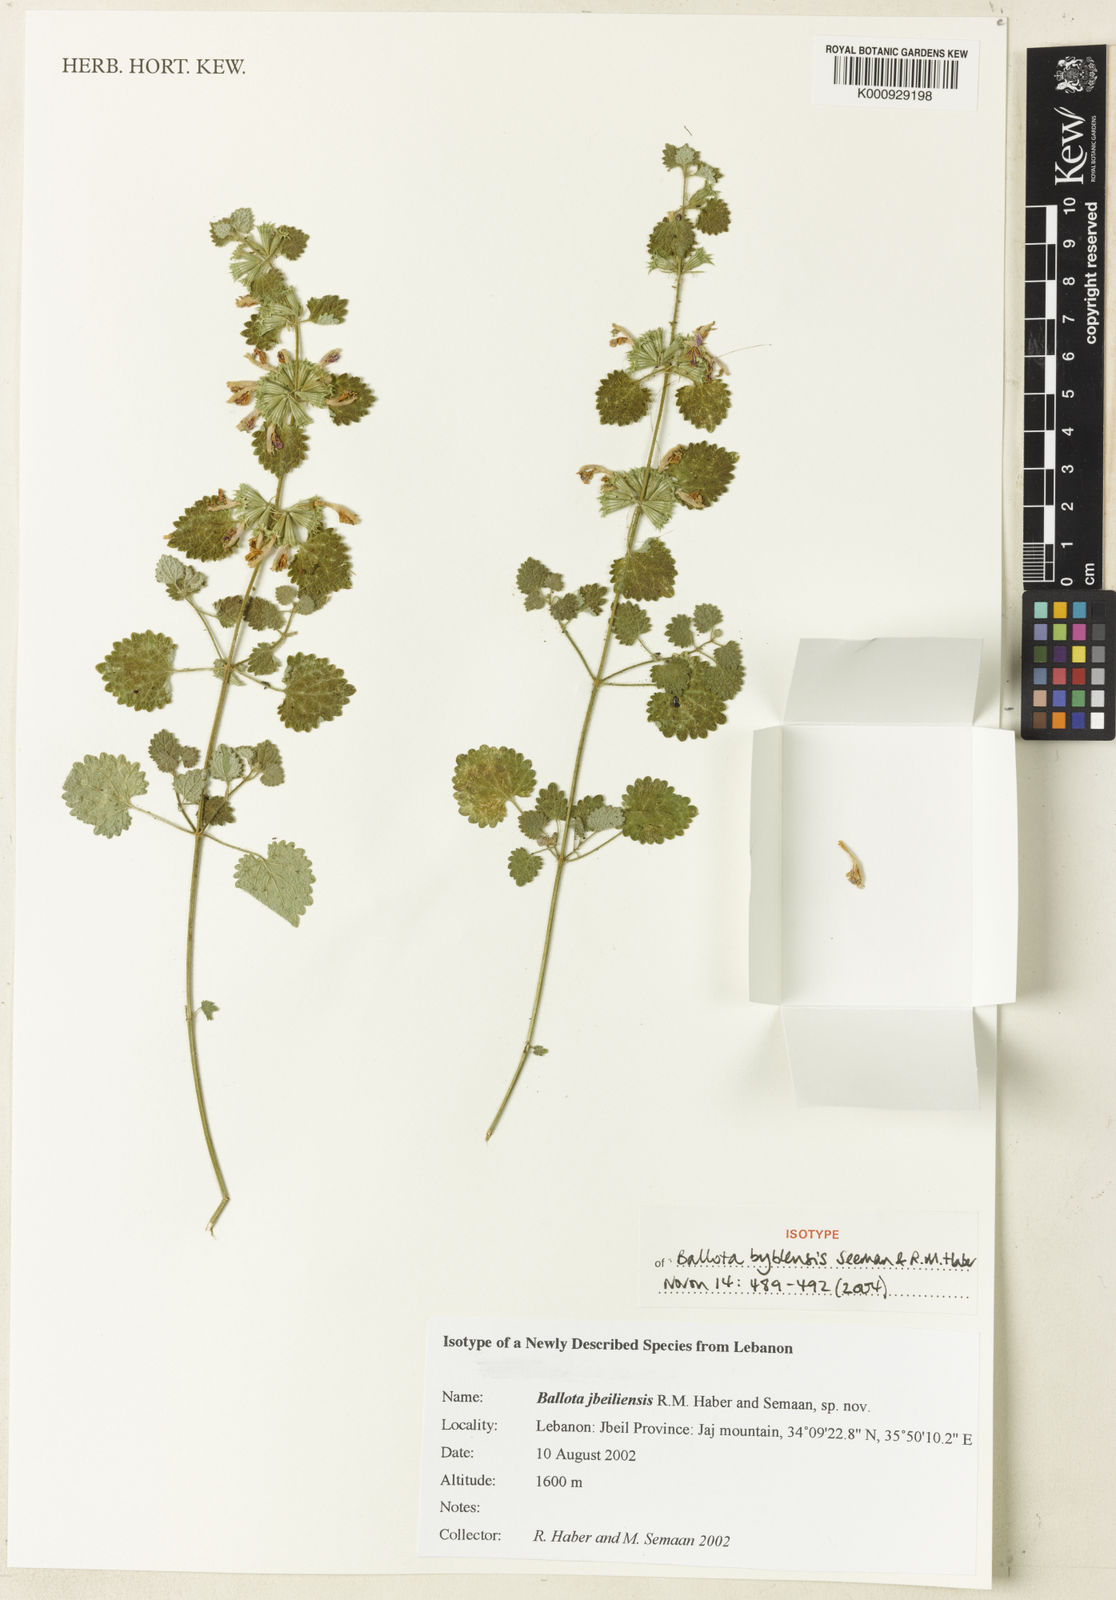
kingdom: Plantae
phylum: Tracheophyta
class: Magnoliopsida
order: Lamiales
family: Lamiaceae
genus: Ballota
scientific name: Ballota byblensis
